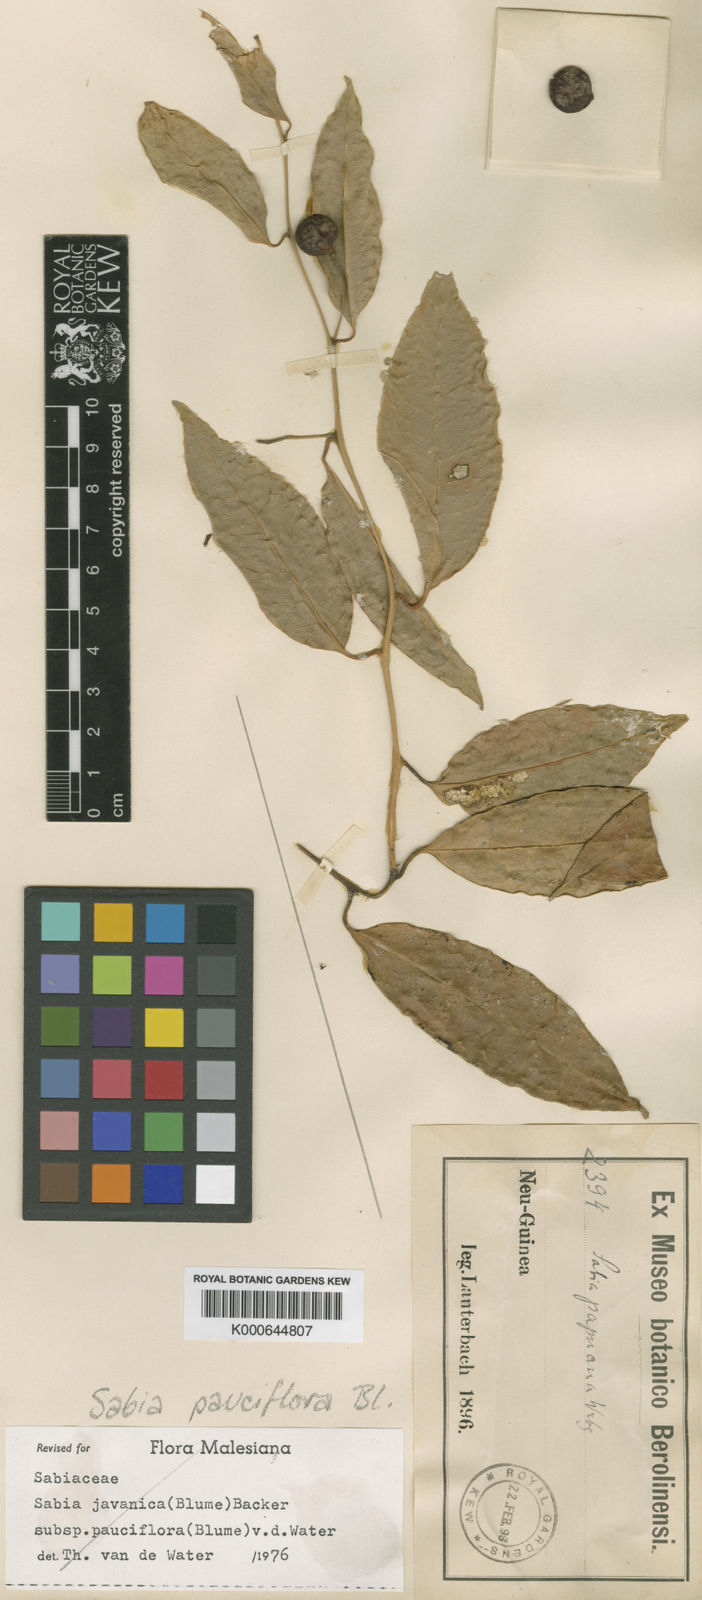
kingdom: Plantae
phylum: Tracheophyta
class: Magnoliopsida
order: Proteales
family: Sabiaceae
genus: Sabia
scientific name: Sabia pauciflora
